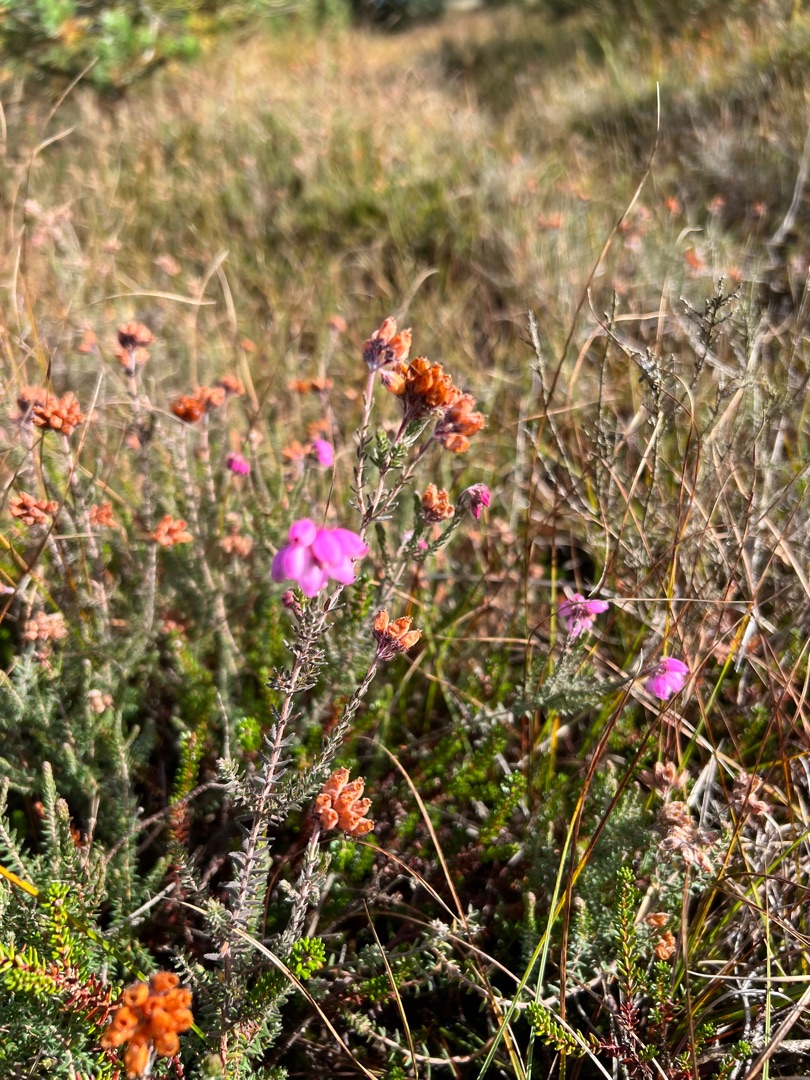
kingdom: Plantae
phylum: Tracheophyta
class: Magnoliopsida
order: Ericales
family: Ericaceae
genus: Erica
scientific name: Erica tetralix
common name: Klokkelyng
